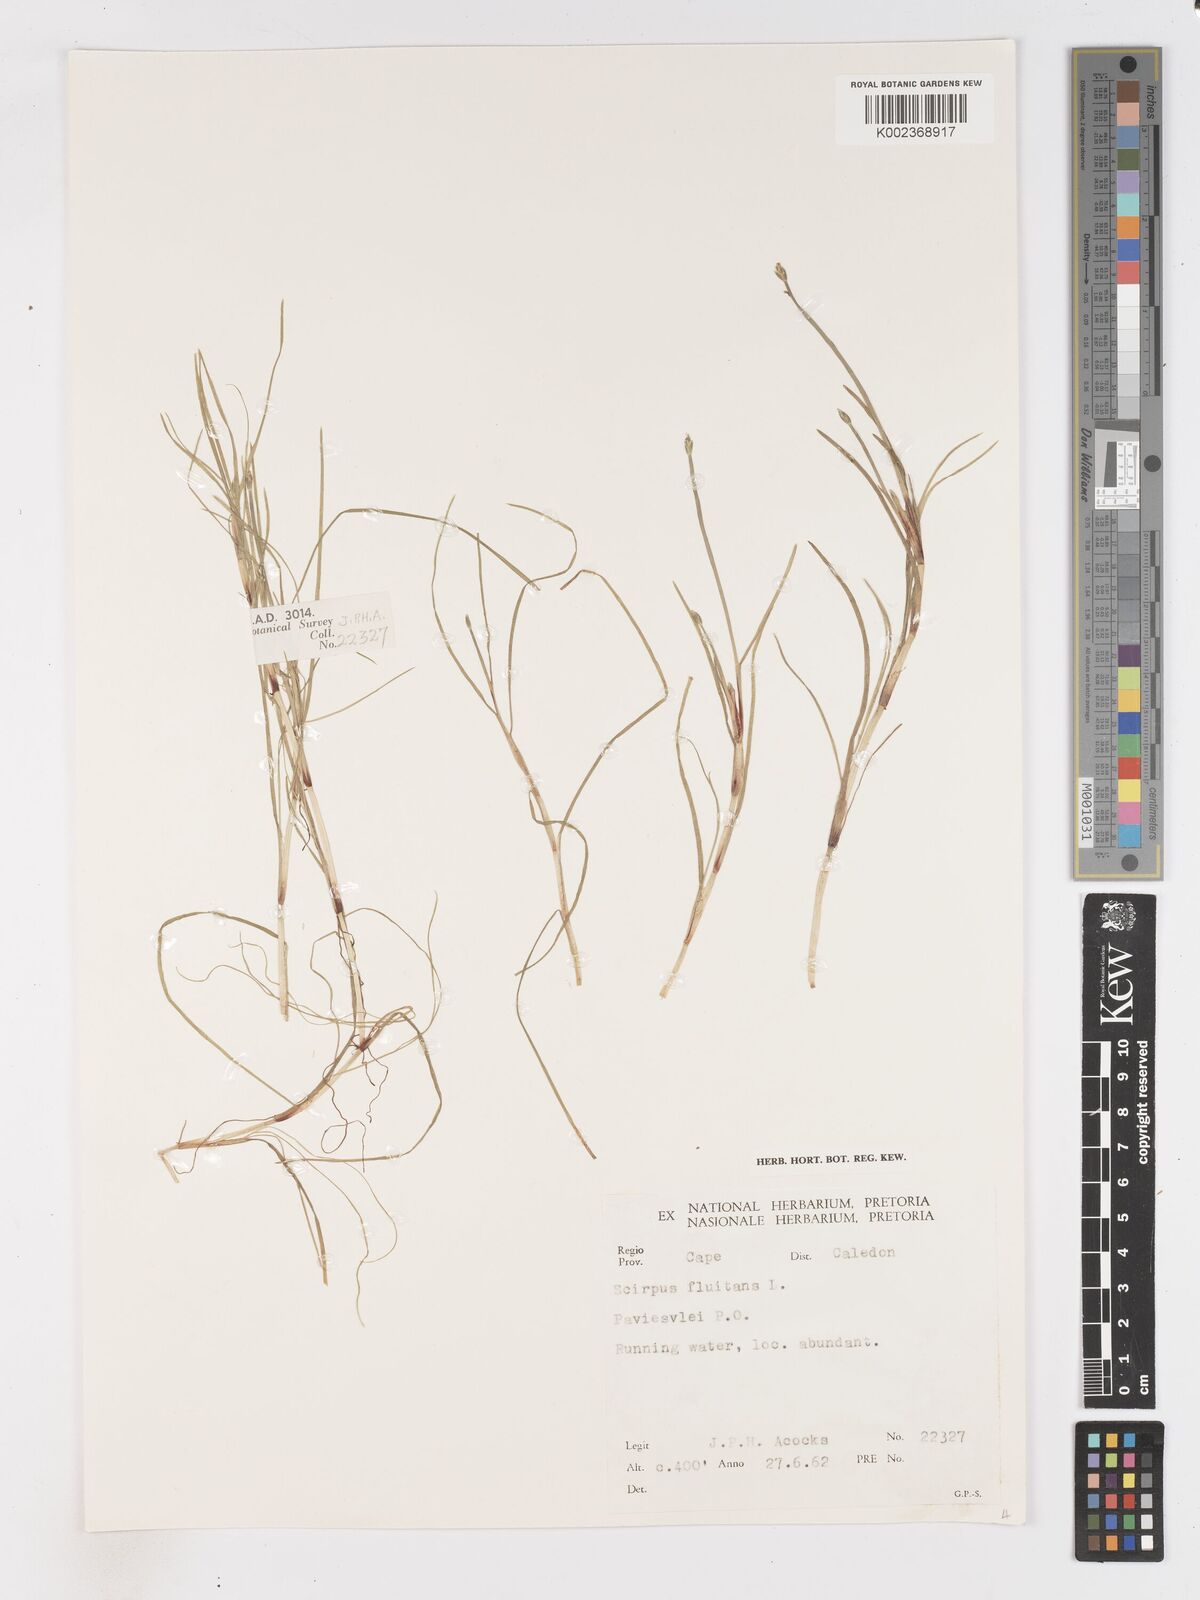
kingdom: Plantae
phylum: Tracheophyta
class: Liliopsida
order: Poales
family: Cyperaceae
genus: Isolepis
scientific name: Isolepis fluitans
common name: Floating club-rush
